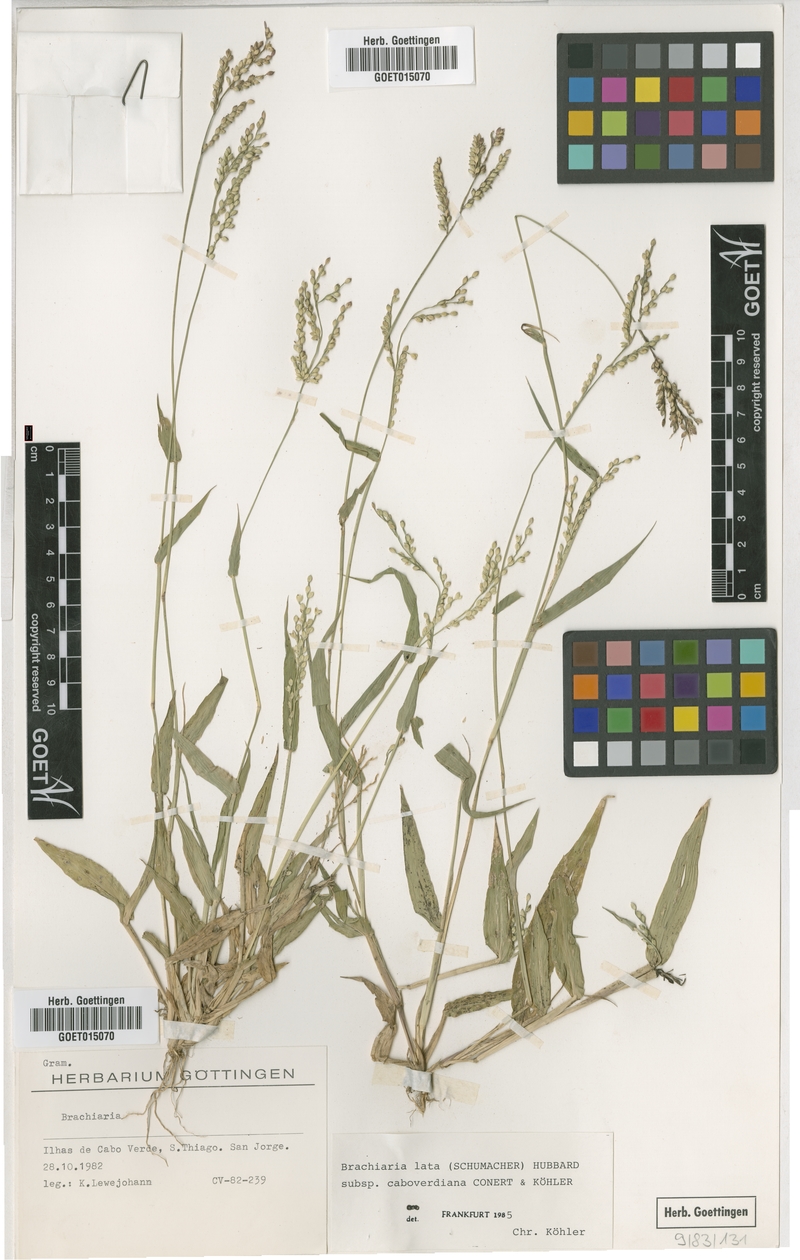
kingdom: Plantae
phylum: Tracheophyta
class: Liliopsida
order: Poales
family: Poaceae
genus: Urochloa
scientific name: Urochloa caboverdiana
